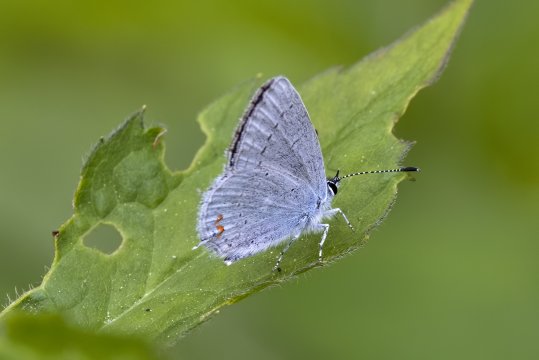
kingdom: Animalia
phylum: Arthropoda
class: Insecta
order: Lepidoptera
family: Lycaenidae
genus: Elkalyce
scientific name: Elkalyce amyntula
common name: Western Tailed-Blue
